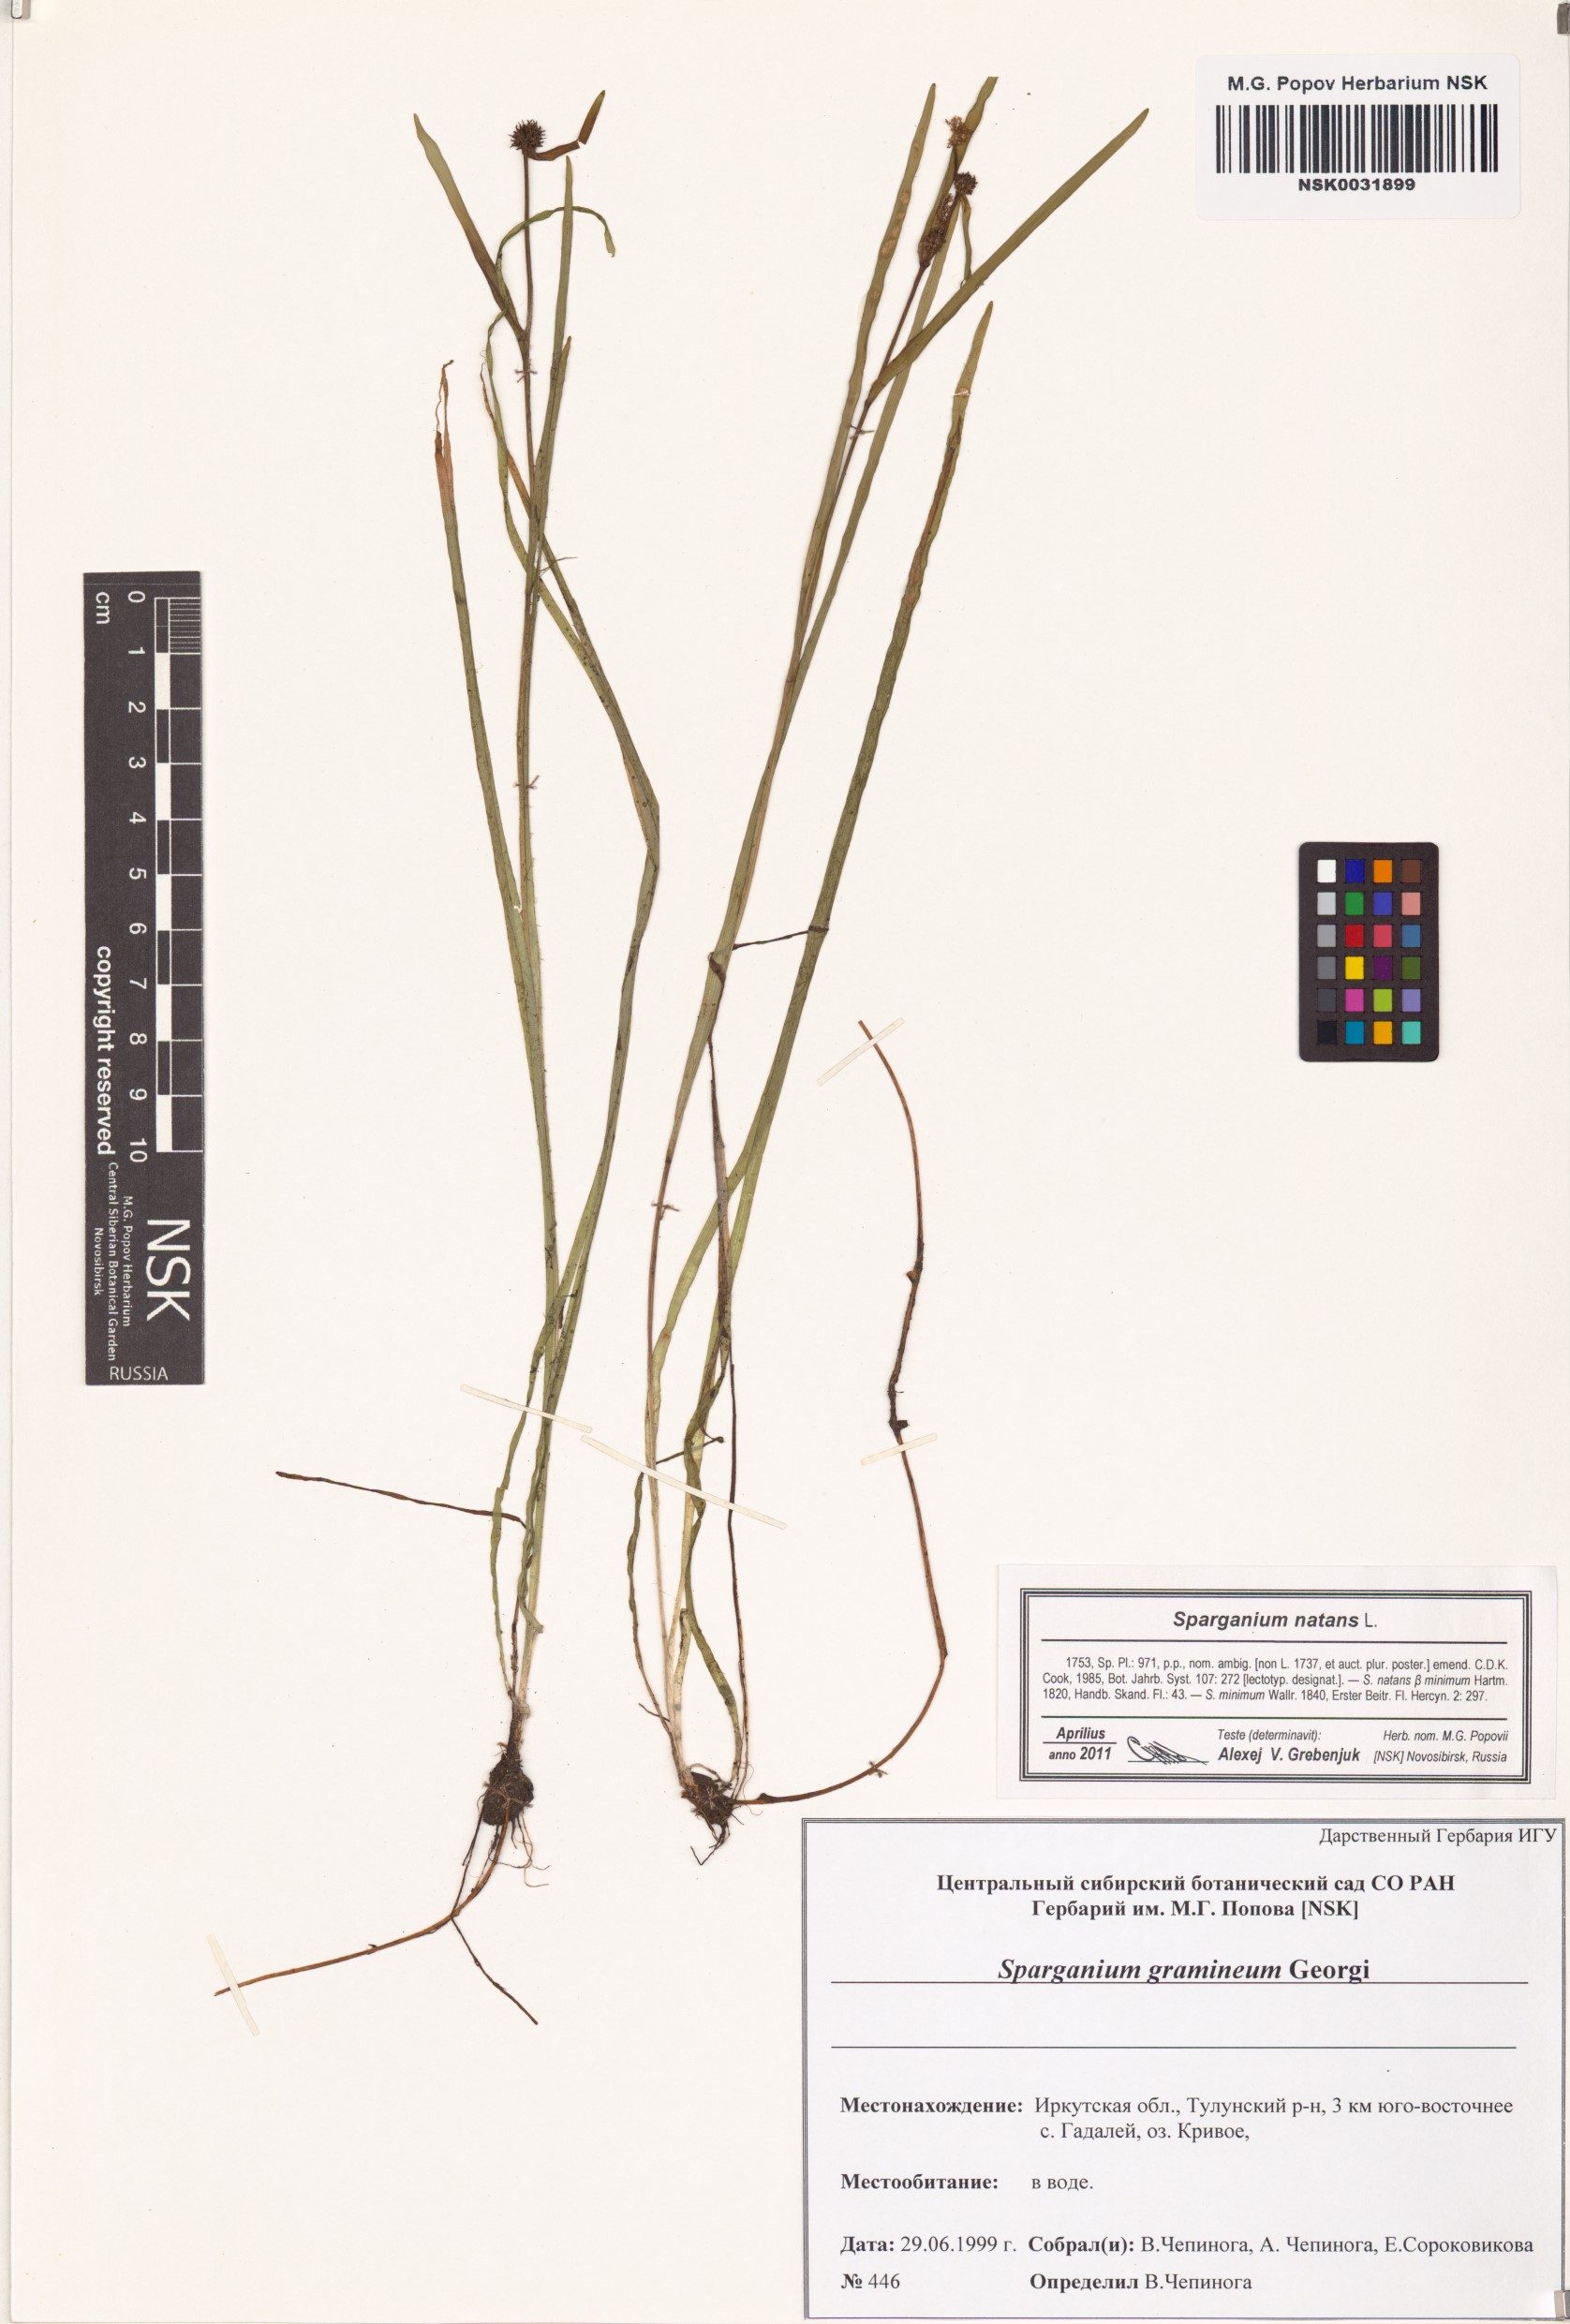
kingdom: Plantae
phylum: Tracheophyta
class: Liliopsida
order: Poales
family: Typhaceae
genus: Sparganium
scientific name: Sparganium natans
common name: Least bur-reed
